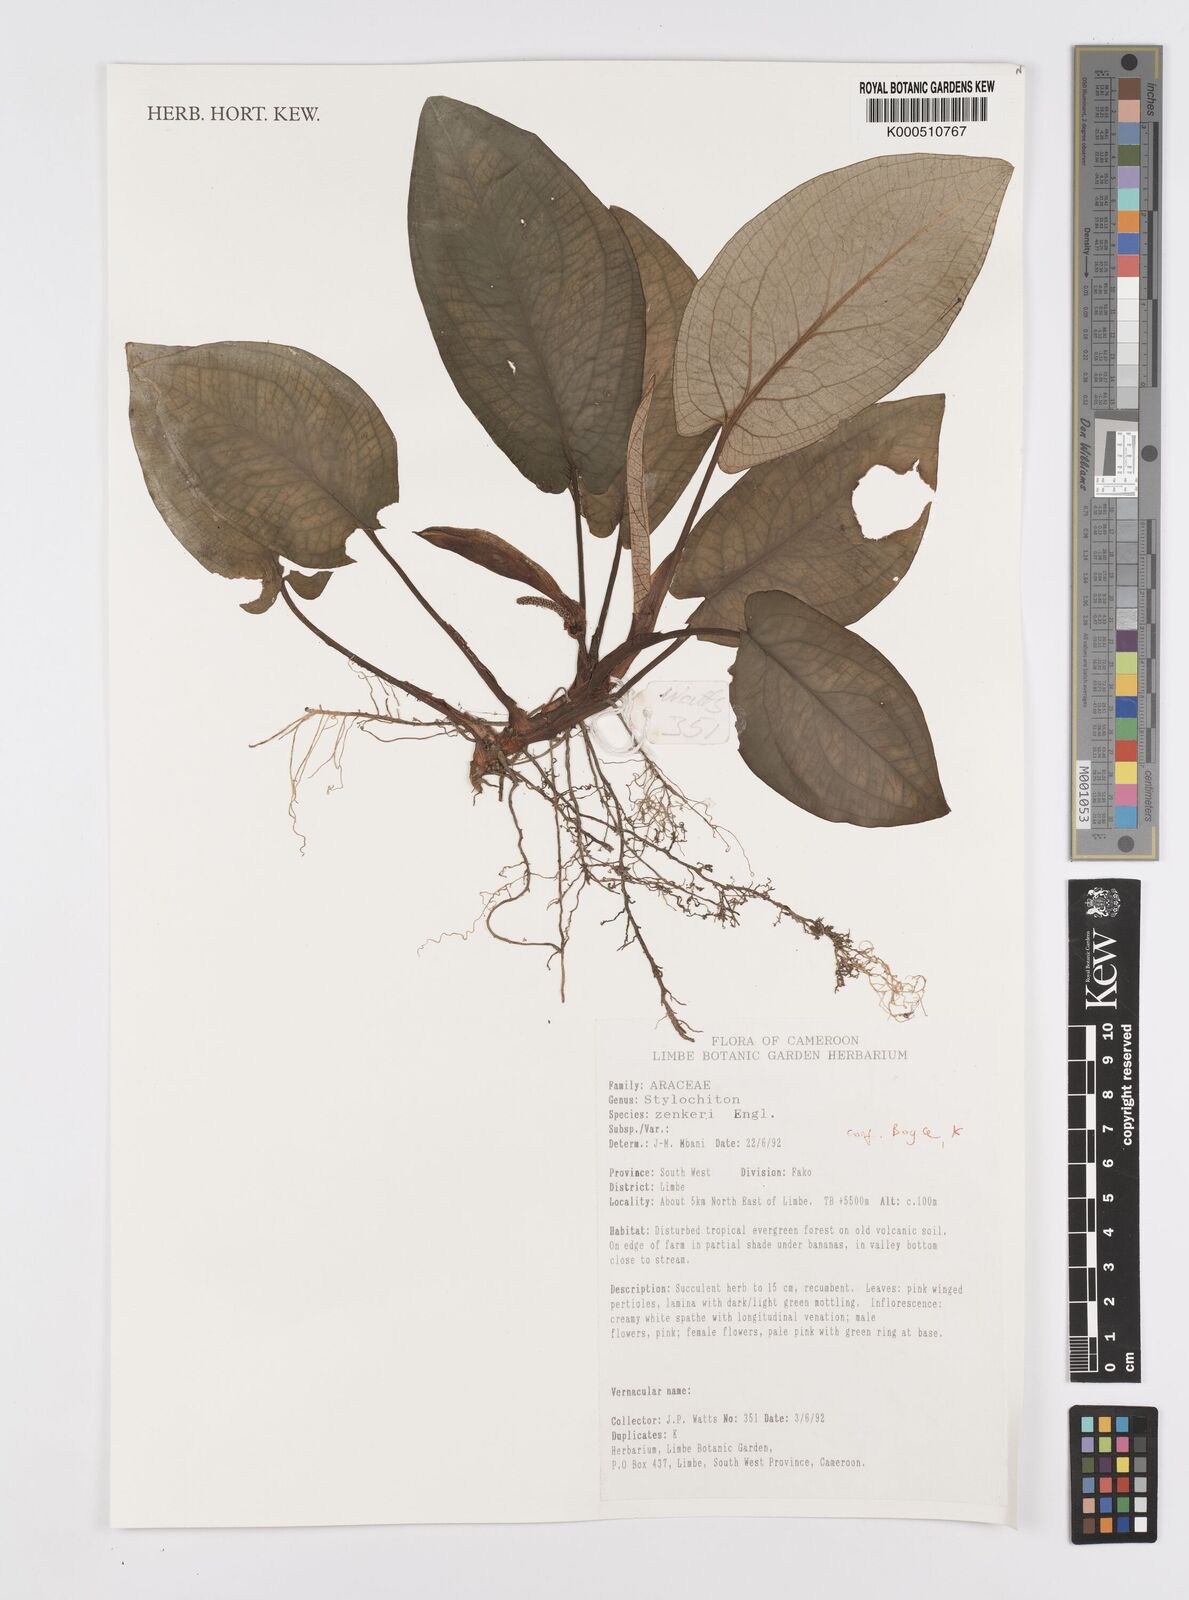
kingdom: Plantae
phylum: Tracheophyta
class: Liliopsida
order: Alismatales
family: Araceae
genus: Stylochaeton
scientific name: Stylochaeton zenkeri
